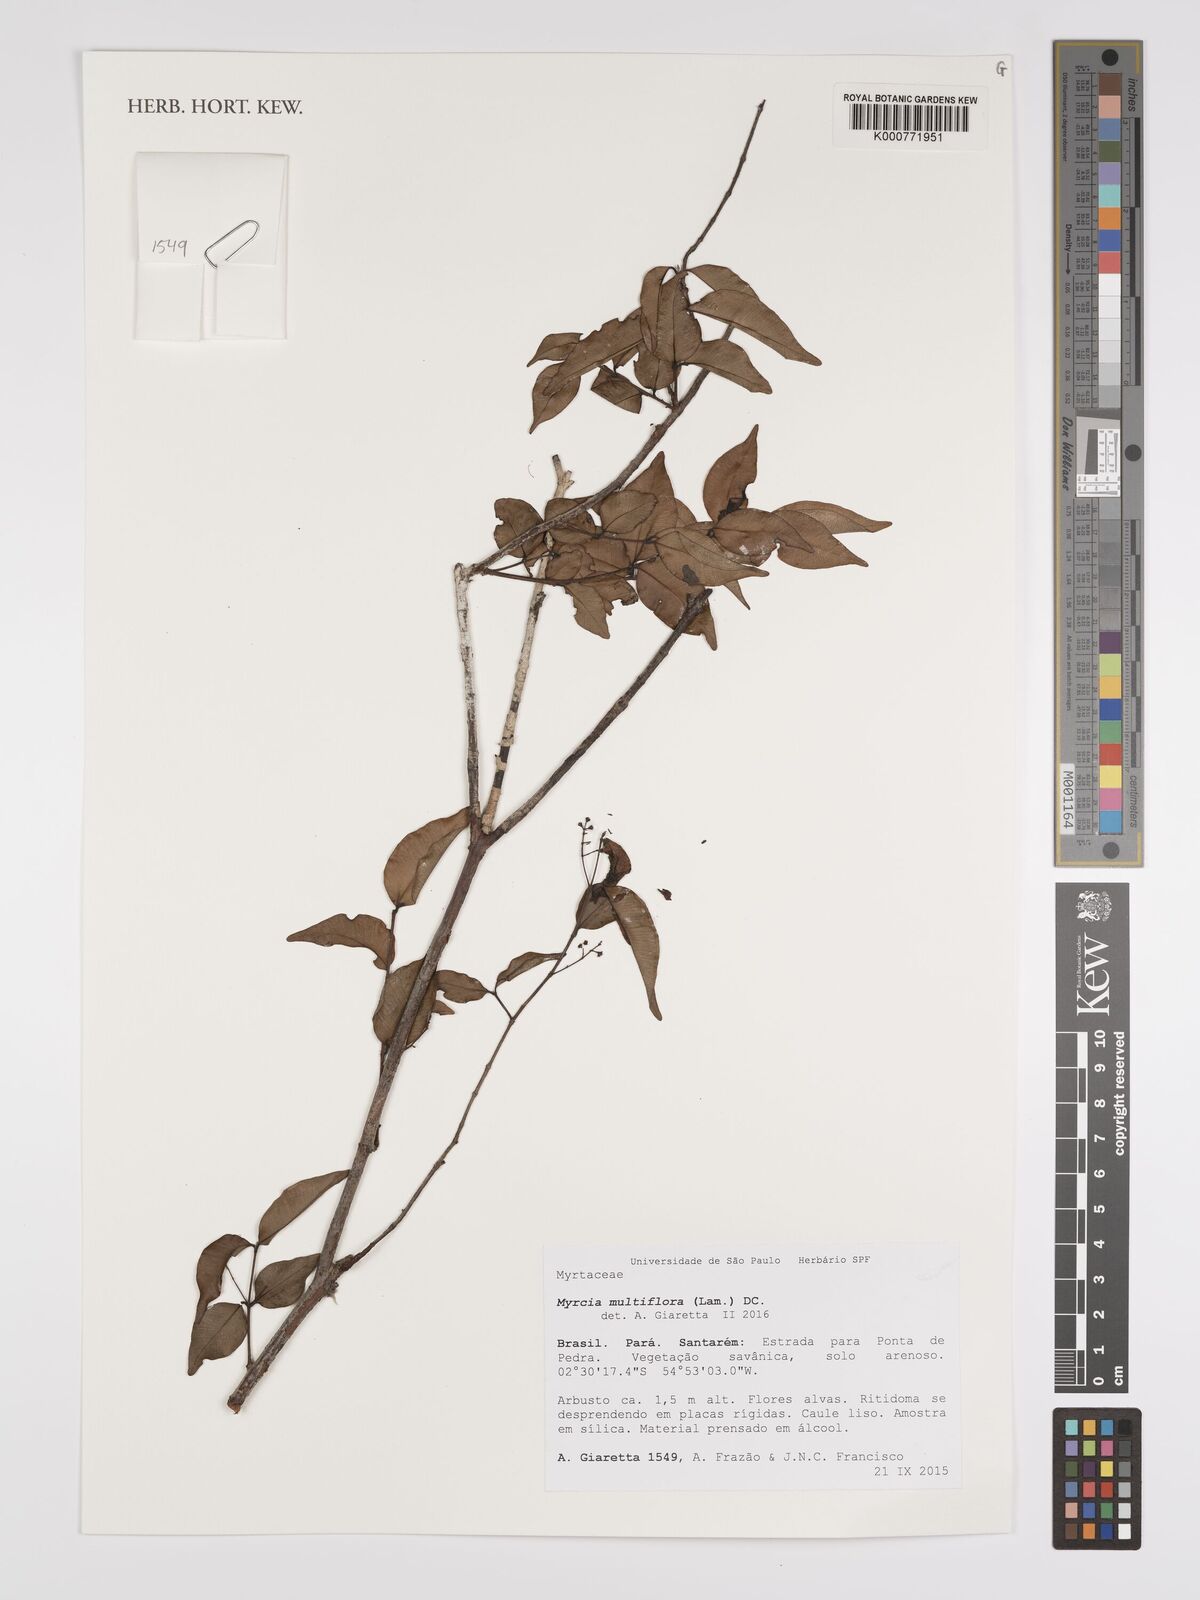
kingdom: Plantae
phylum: Tracheophyta
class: Magnoliopsida
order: Myrtales
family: Myrtaceae
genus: Myrcia
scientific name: Myrcia multiflora
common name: Pedra hume
